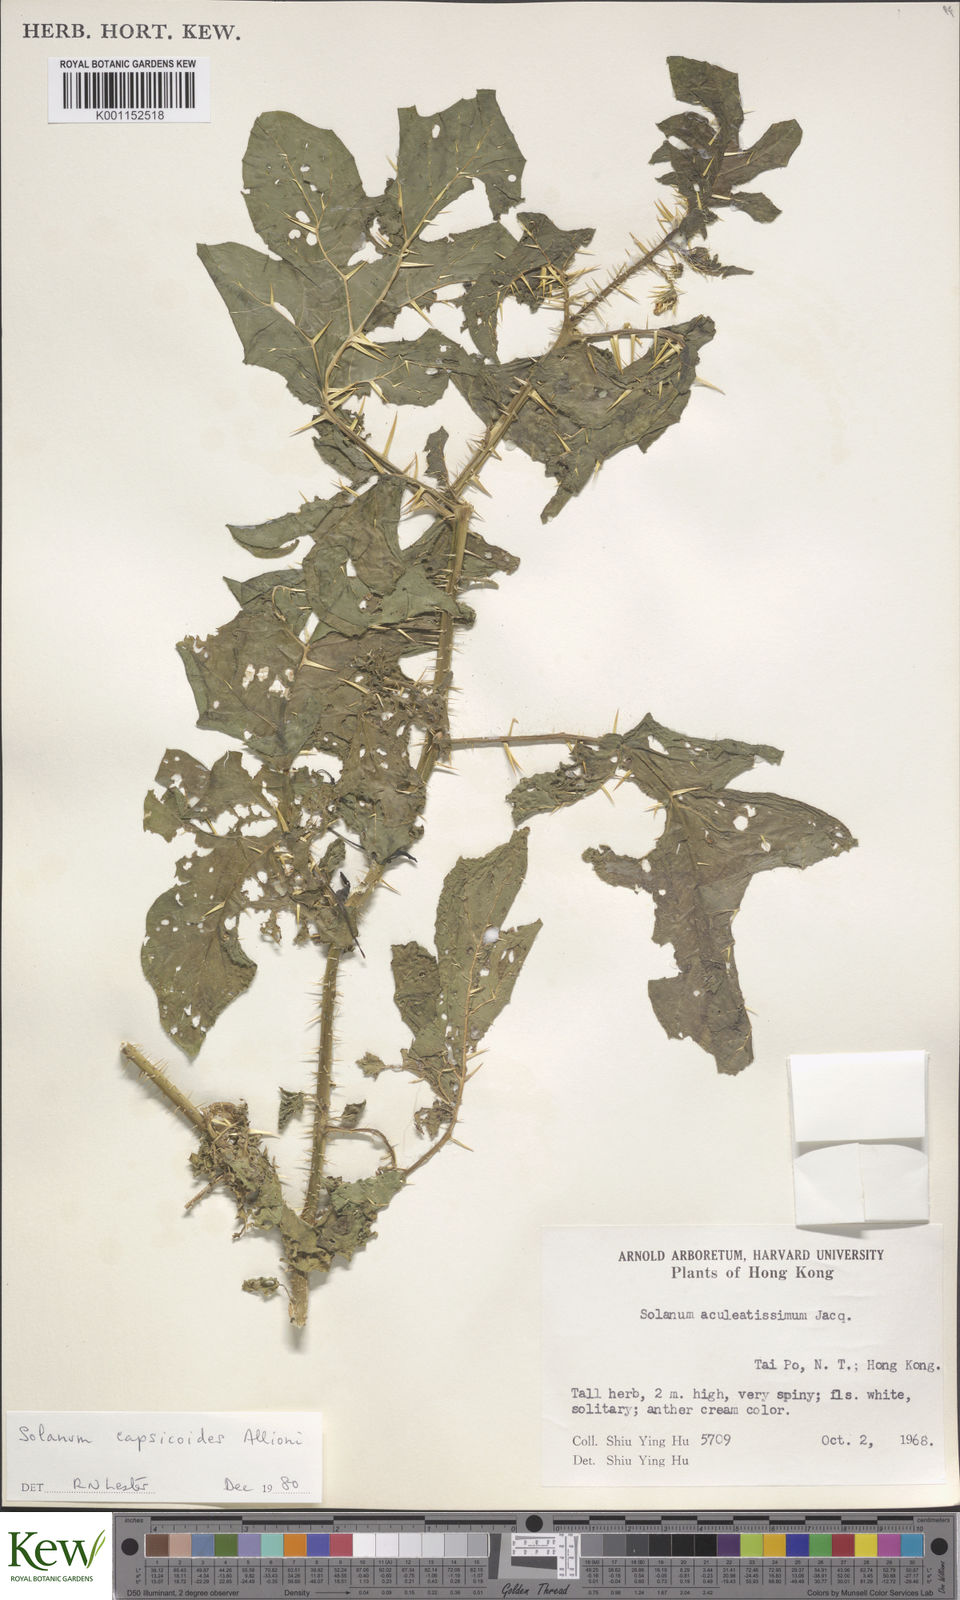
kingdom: Plantae
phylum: Tracheophyta
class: Magnoliopsida
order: Solanales
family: Solanaceae
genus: Solanum
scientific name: Solanum capsicoides
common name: Cockroach berry
